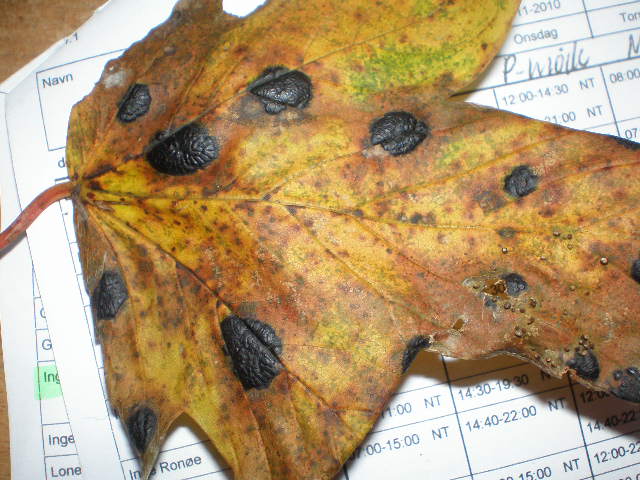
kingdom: Fungi
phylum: Ascomycota
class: Leotiomycetes
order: Rhytismatales
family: Rhytismataceae
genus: Rhytisma
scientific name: Rhytisma acerinum
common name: ahorn-rynkeplet
